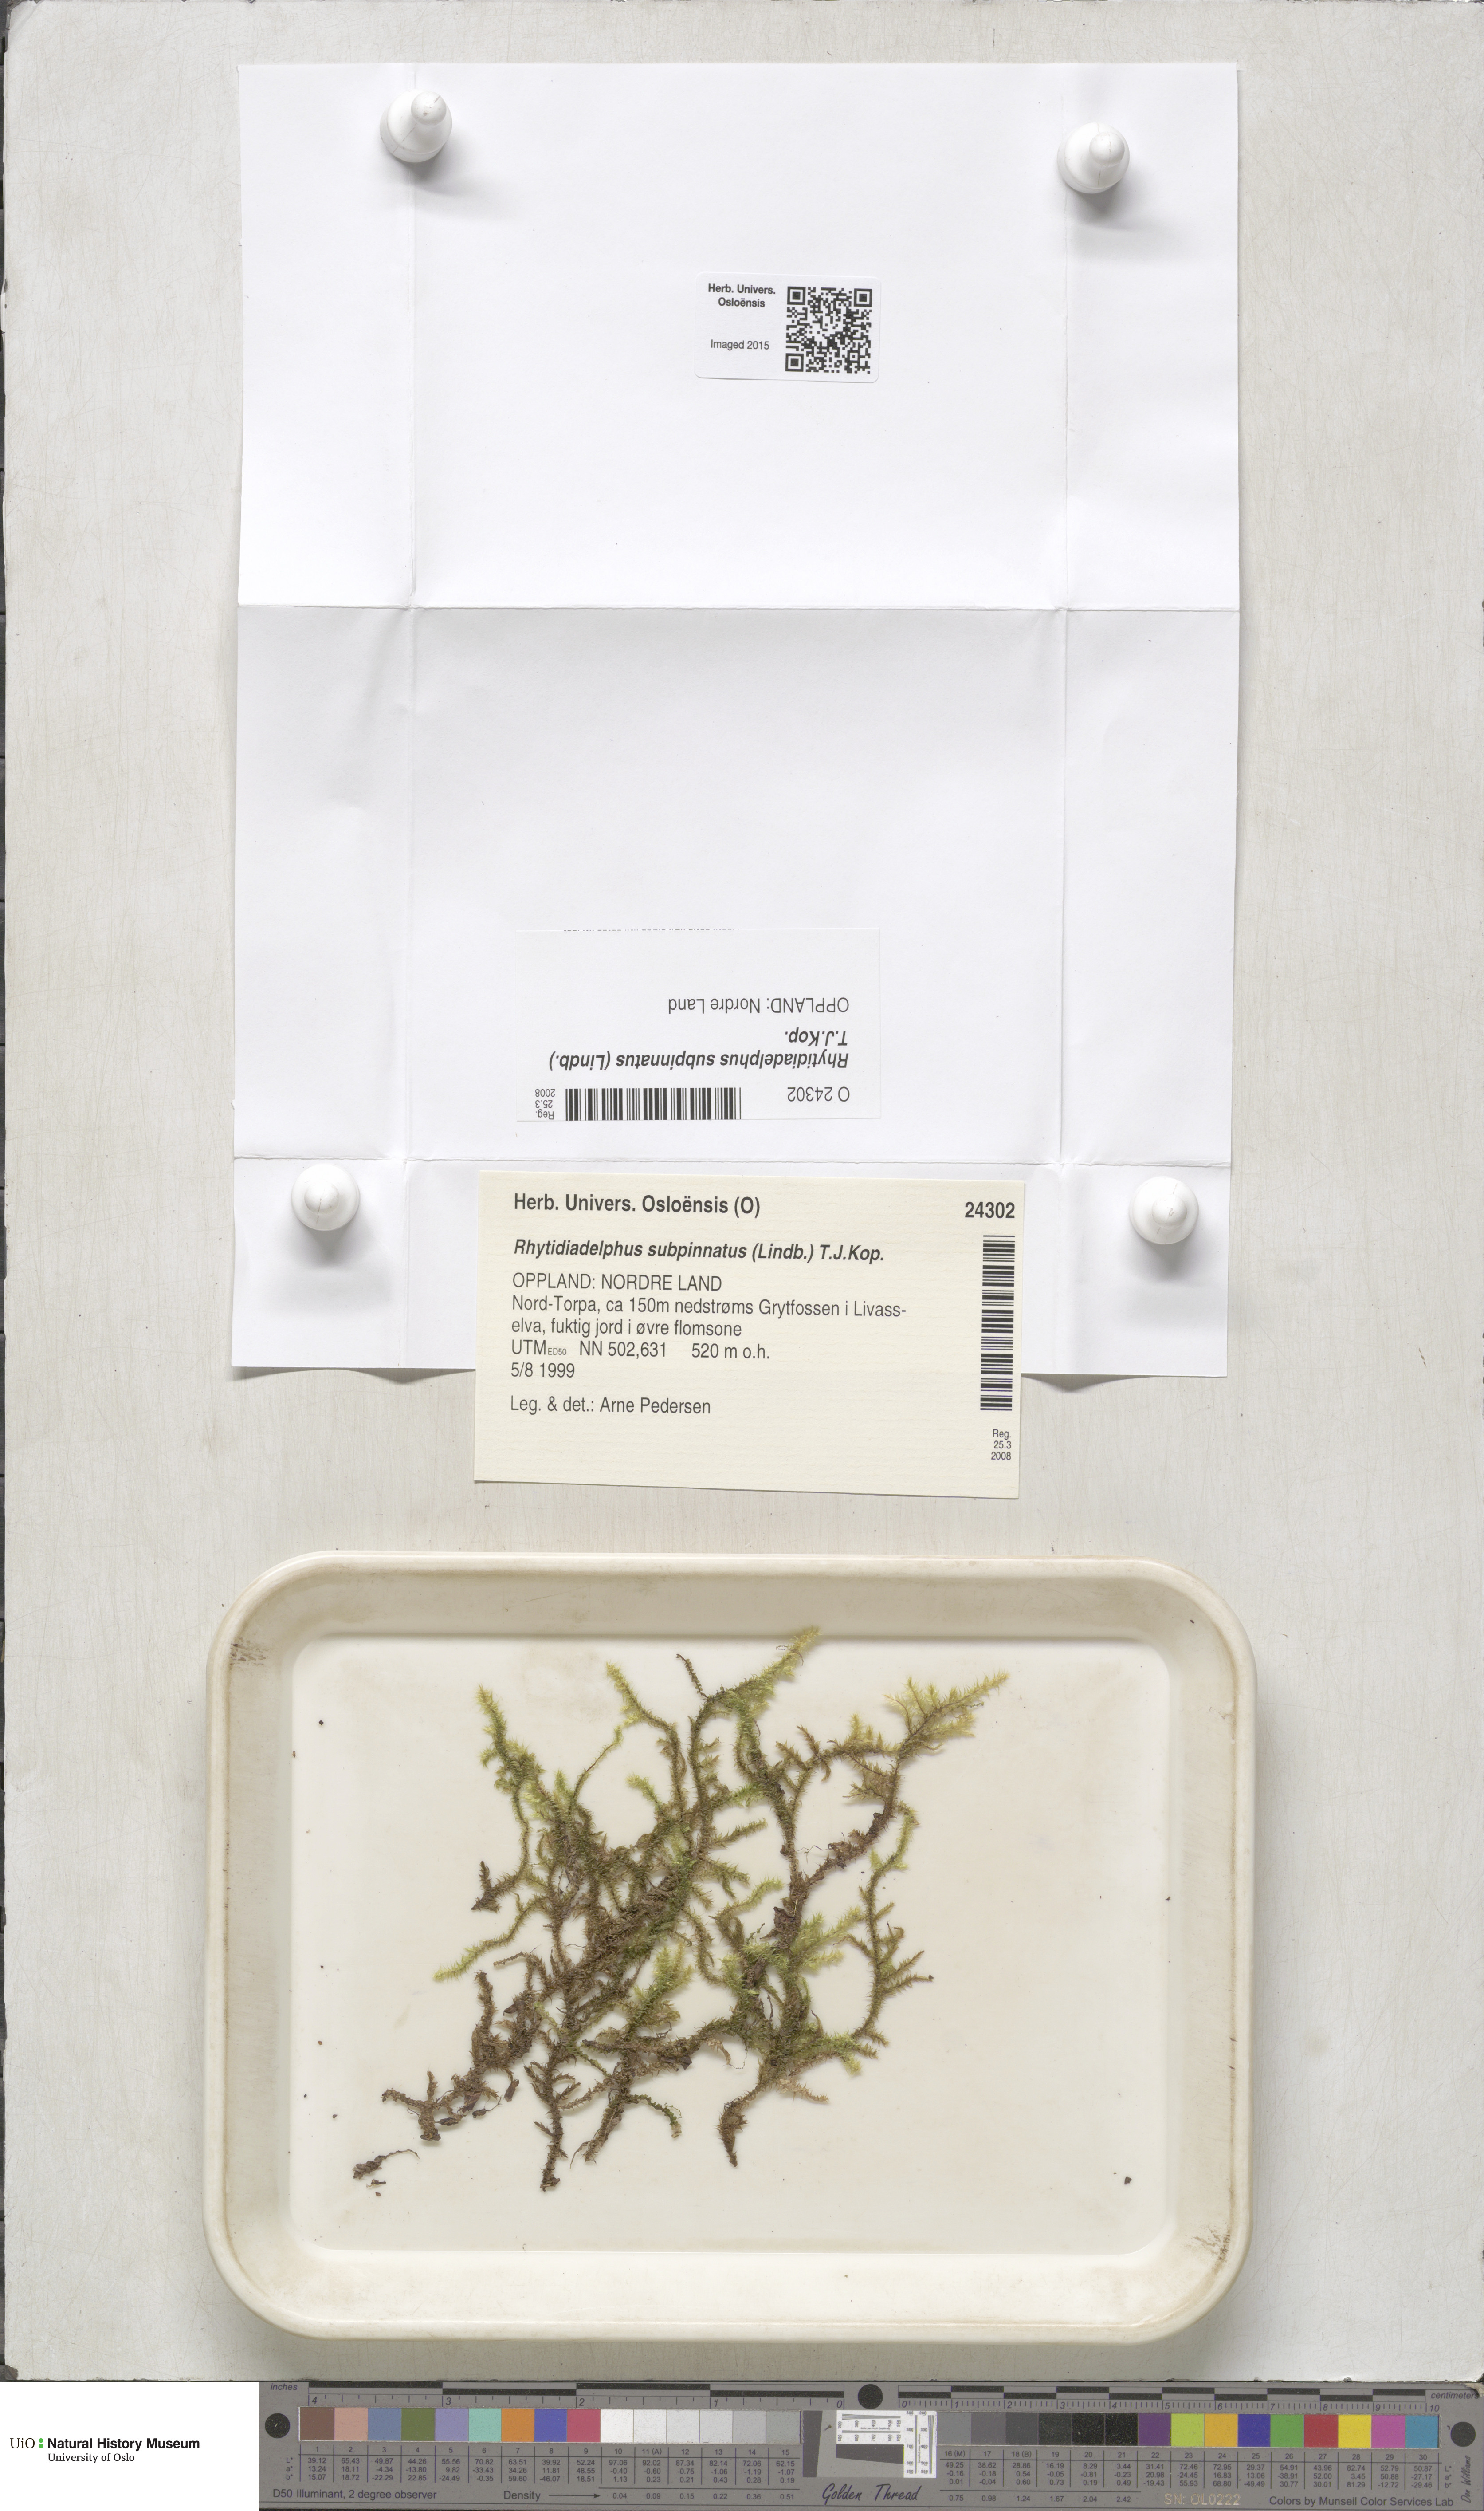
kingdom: Plantae
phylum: Bryophyta
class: Bryopsida
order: Hypnales
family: Hylocomiaceae
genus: Rhytidiadelphus
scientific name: Rhytidiadelphus subpinnatus
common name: Subpinnate gooseneck moss
